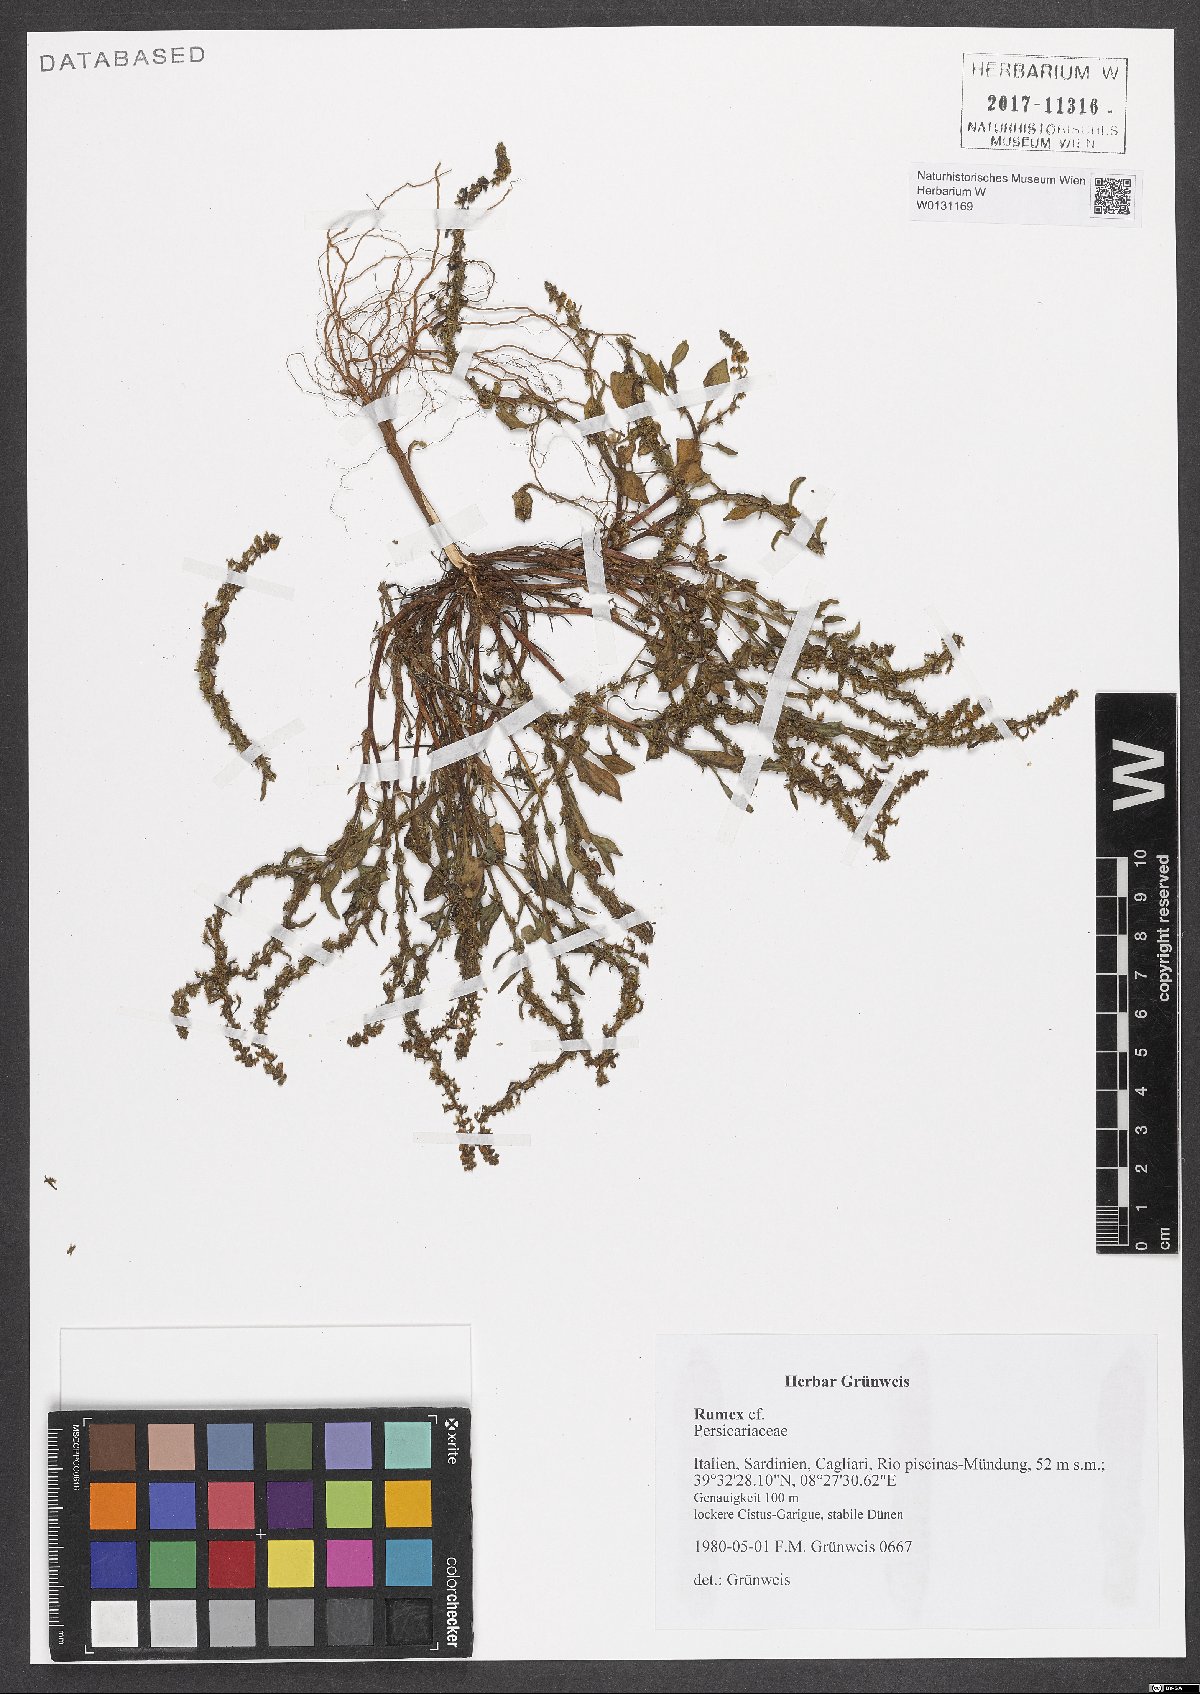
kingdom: Plantae
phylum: Tracheophyta
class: Magnoliopsida
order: Caryophyllales
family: Polygonaceae
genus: Rumex
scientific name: Rumex
